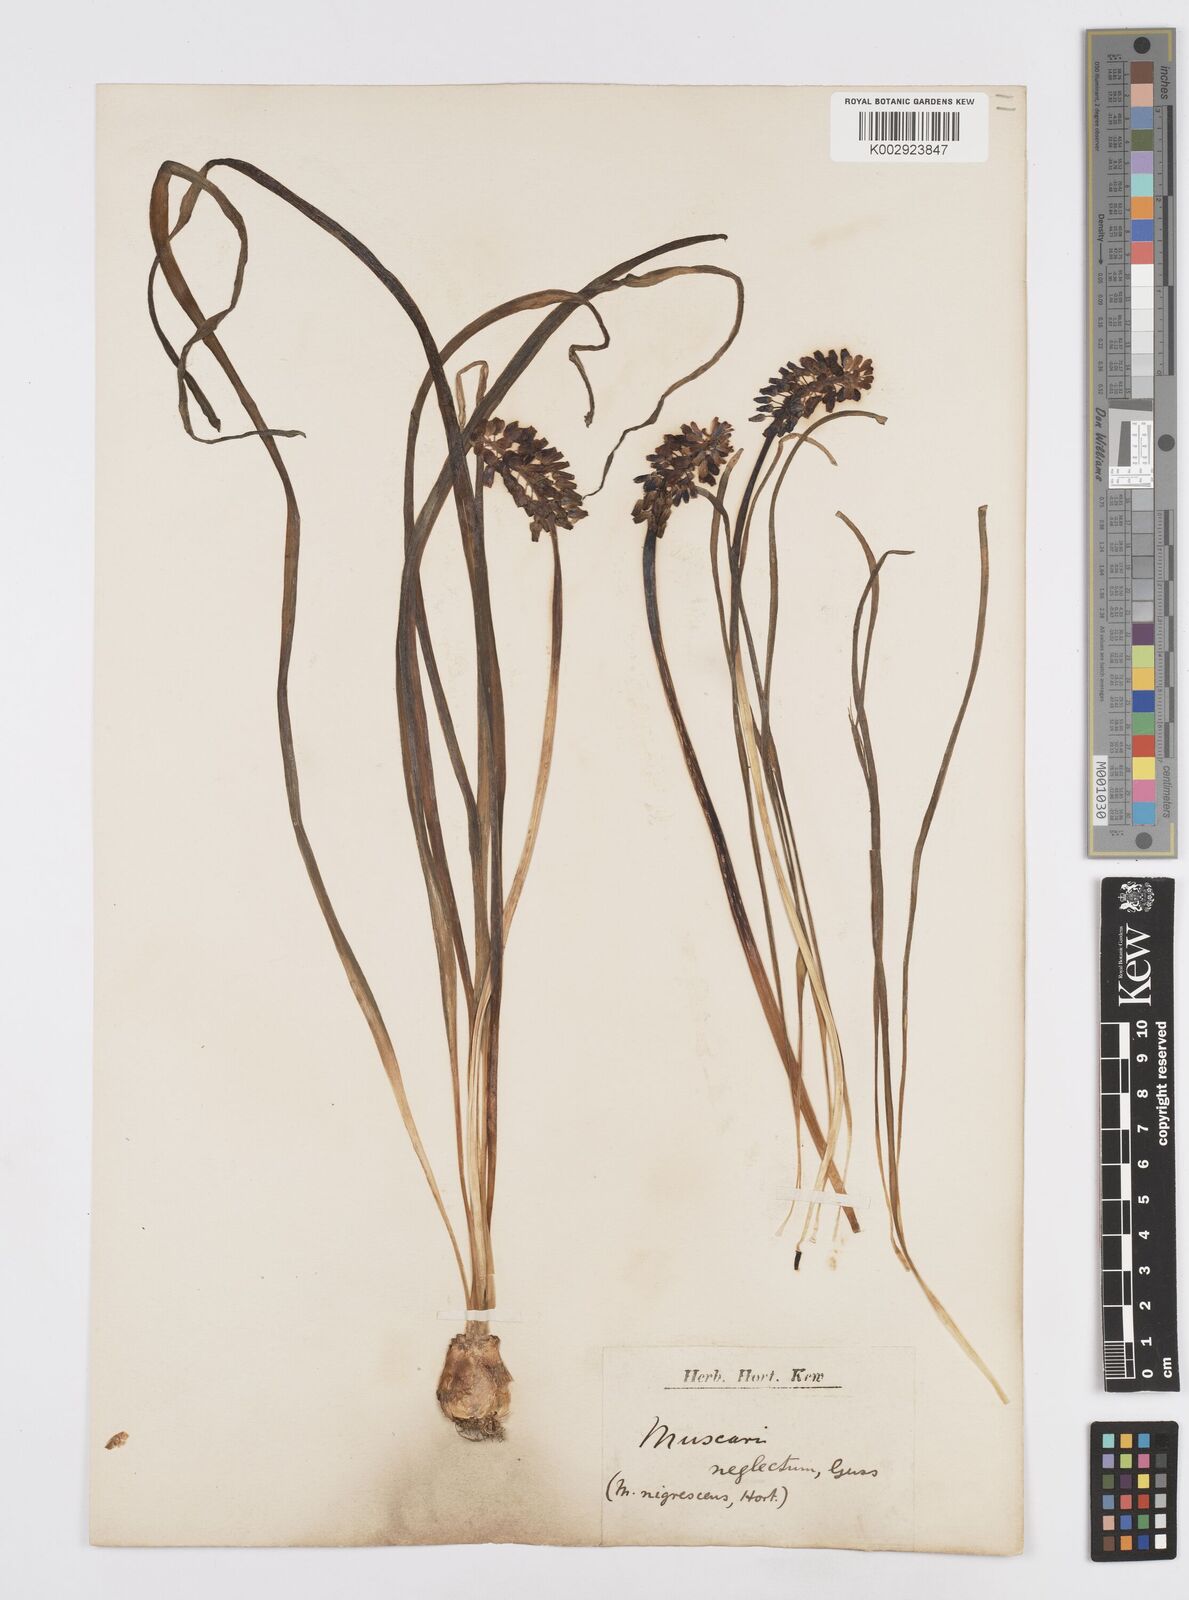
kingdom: Plantae
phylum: Tracheophyta
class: Liliopsida
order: Asparagales
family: Asparagaceae
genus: Muscari
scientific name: Muscari neglectum
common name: Grape-hyacinth
